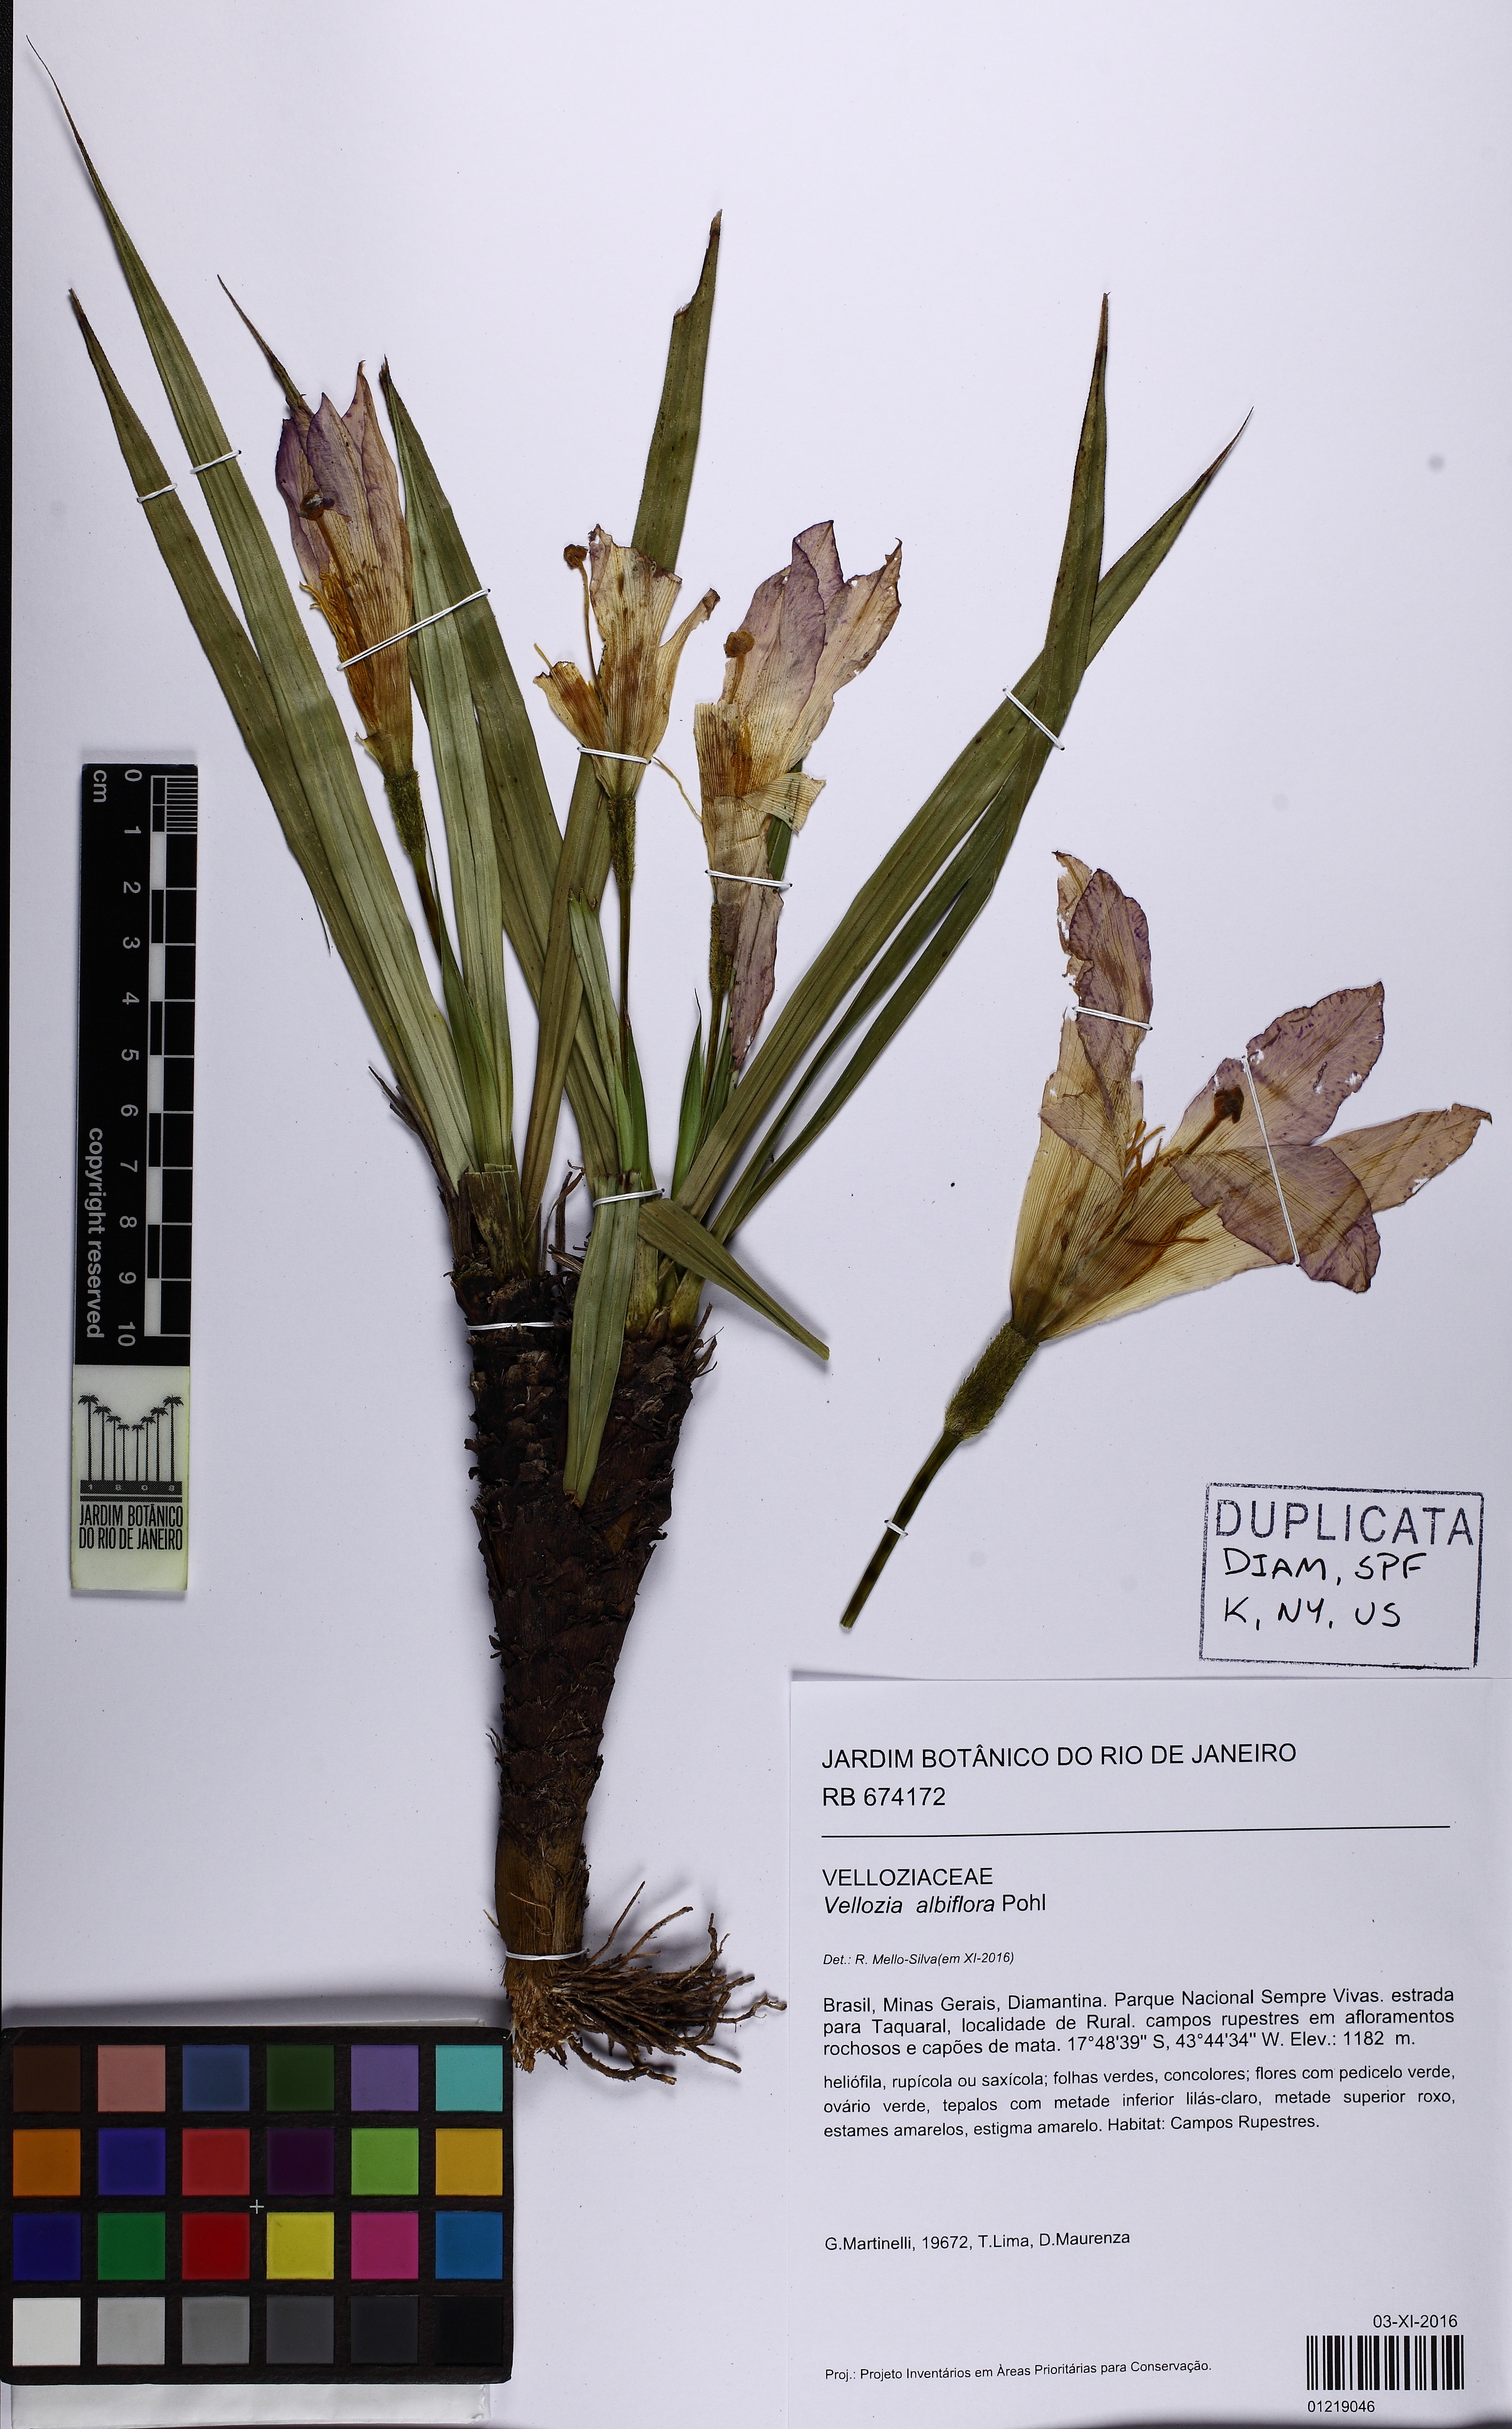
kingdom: Plantae
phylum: Tracheophyta
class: Liliopsida
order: Pandanales
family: Velloziaceae
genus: Vellozia
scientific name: Vellozia albiflora
